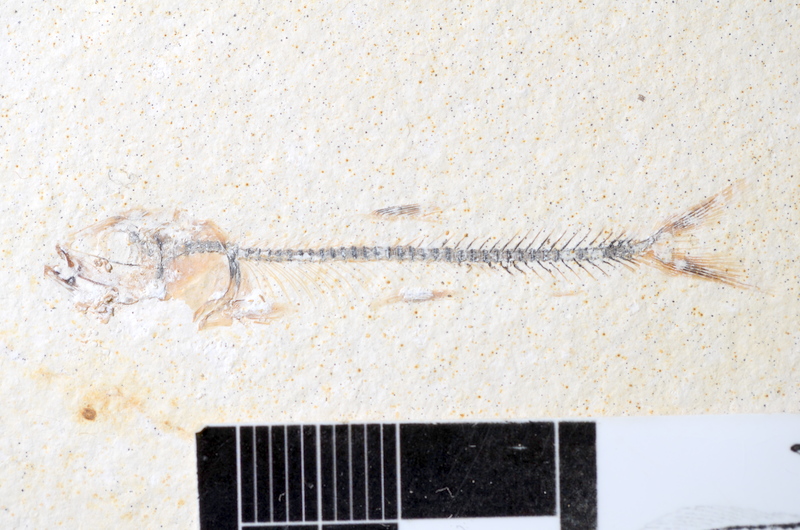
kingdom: Animalia
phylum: Chordata
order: Salmoniformes
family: Orthogonikleithridae
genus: Orthogonikleithrus
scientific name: Orthogonikleithrus hoelli
